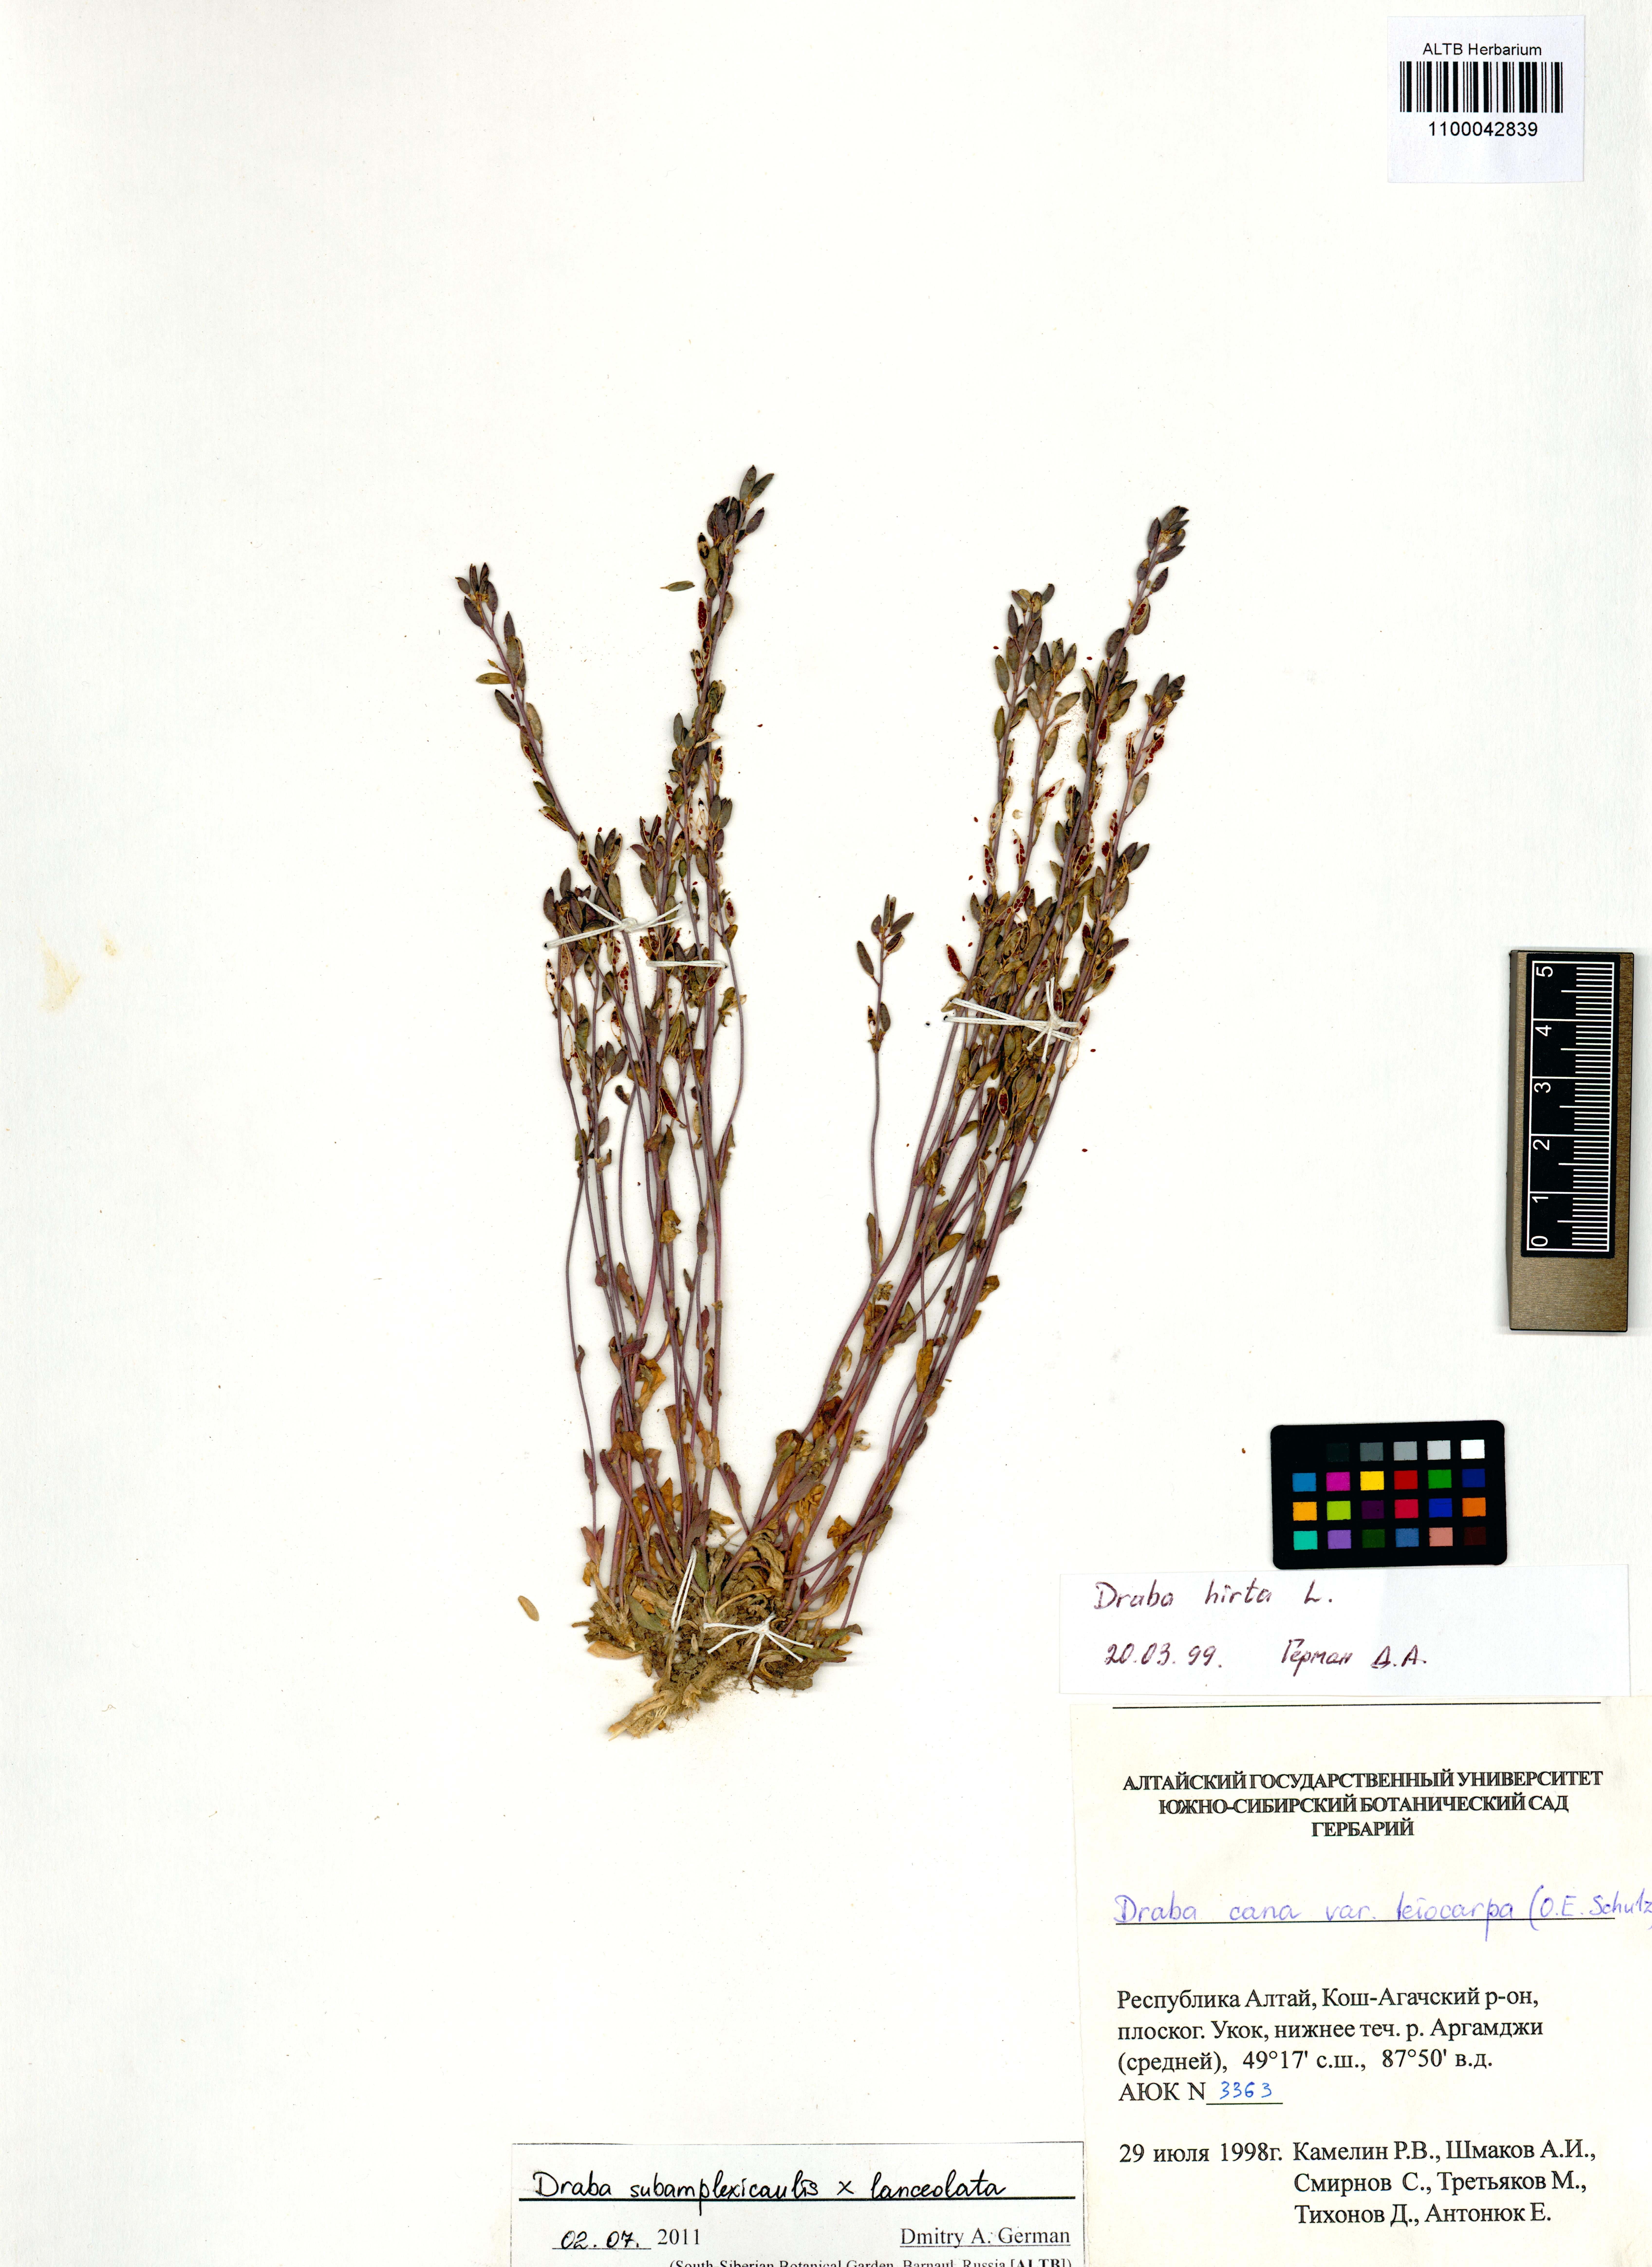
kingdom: Plantae
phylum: Tracheophyta
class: Magnoliopsida
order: Brassicales
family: Brassicaceae
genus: Draba
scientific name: Draba subamplexicaulis
